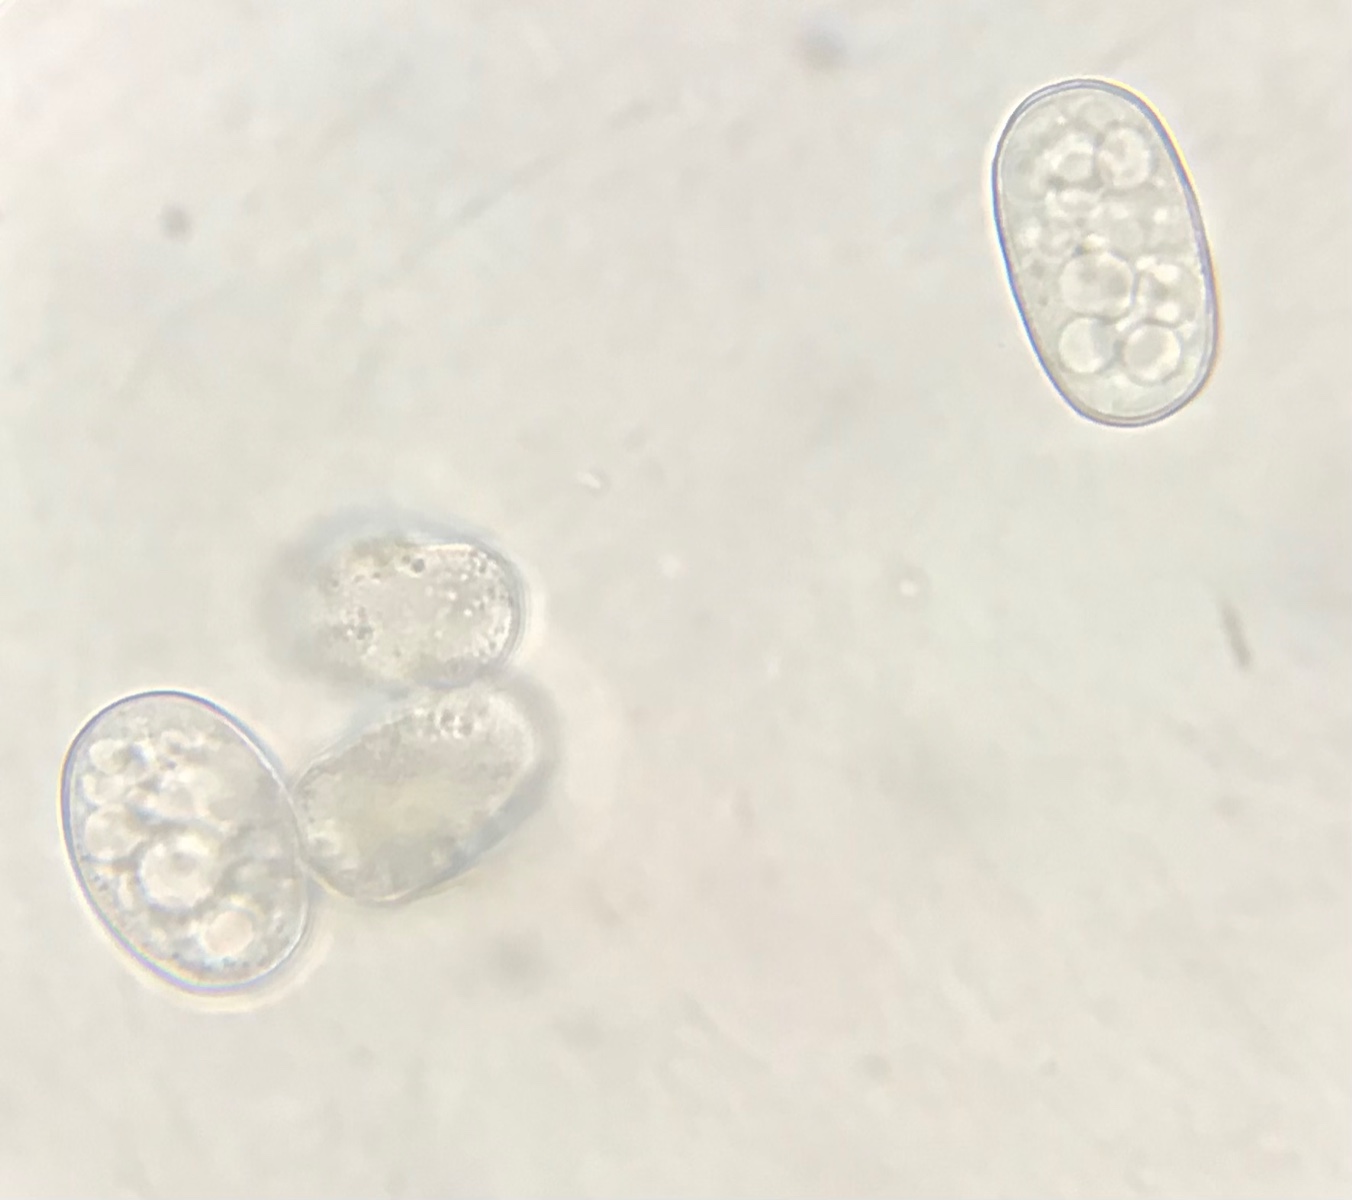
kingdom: Fungi
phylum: Ascomycota
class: Leotiomycetes
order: Helotiales
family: Erysiphaceae
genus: Golovinomyces
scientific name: Golovinomyces fischeri
